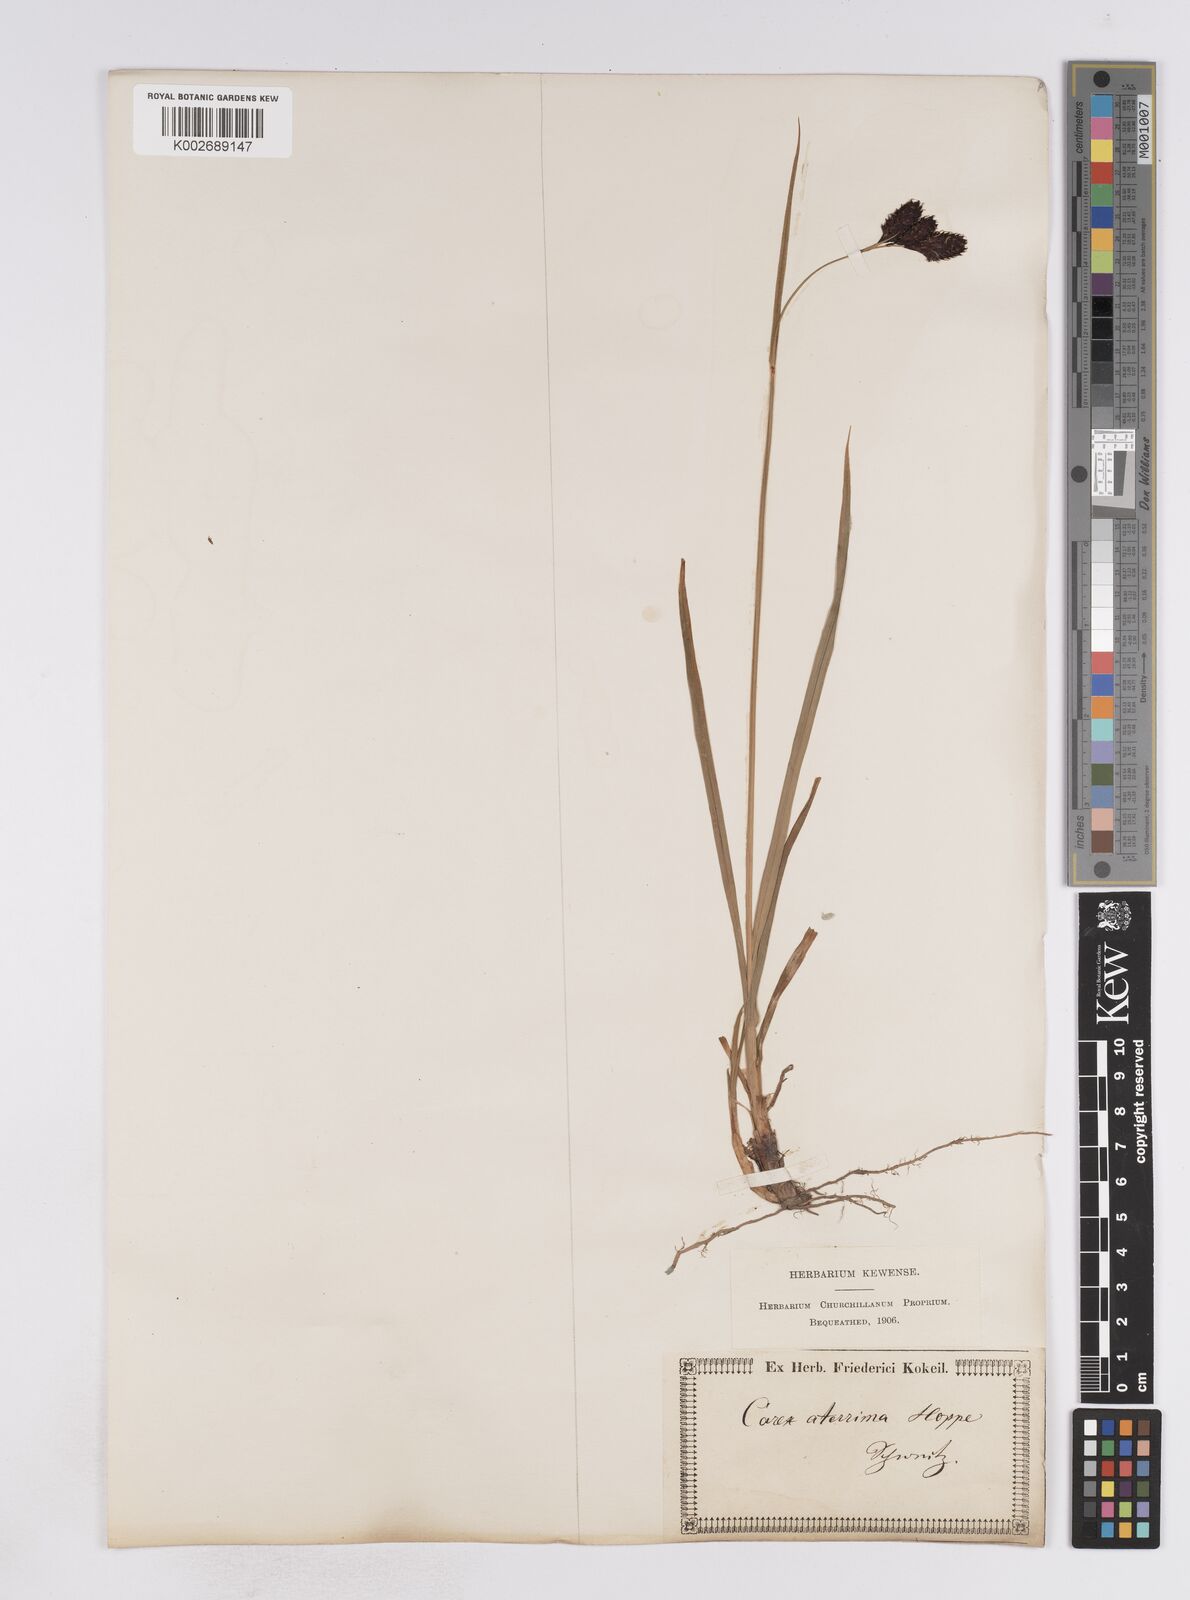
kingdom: Plantae
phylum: Tracheophyta
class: Liliopsida
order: Poales
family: Cyperaceae
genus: Carex
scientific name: Carex aterrima
